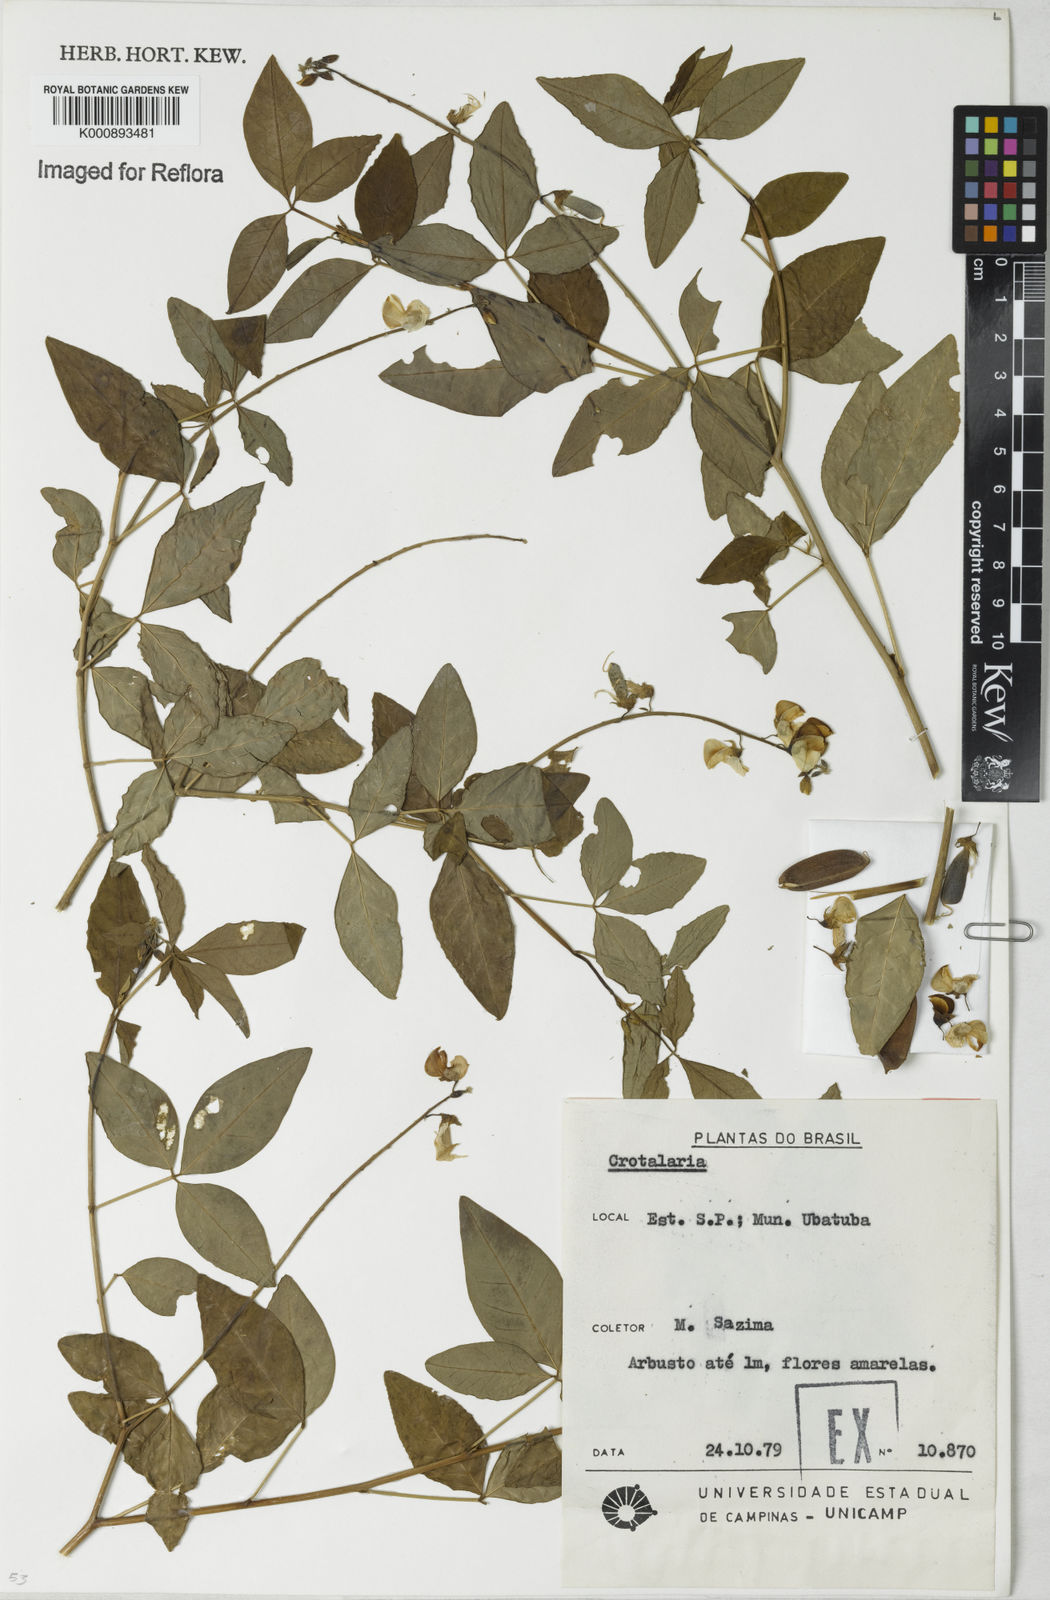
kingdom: Plantae
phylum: Tracheophyta
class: Magnoliopsida
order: Fabales
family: Fabaceae
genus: Crotalaria
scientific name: Crotalaria vitellina
